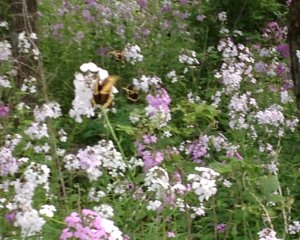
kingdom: Animalia
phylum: Arthropoda
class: Insecta
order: Lepidoptera
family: Papilionidae
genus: Papilio
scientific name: Papilio cresphontes
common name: Eastern Giant Swallowtail
